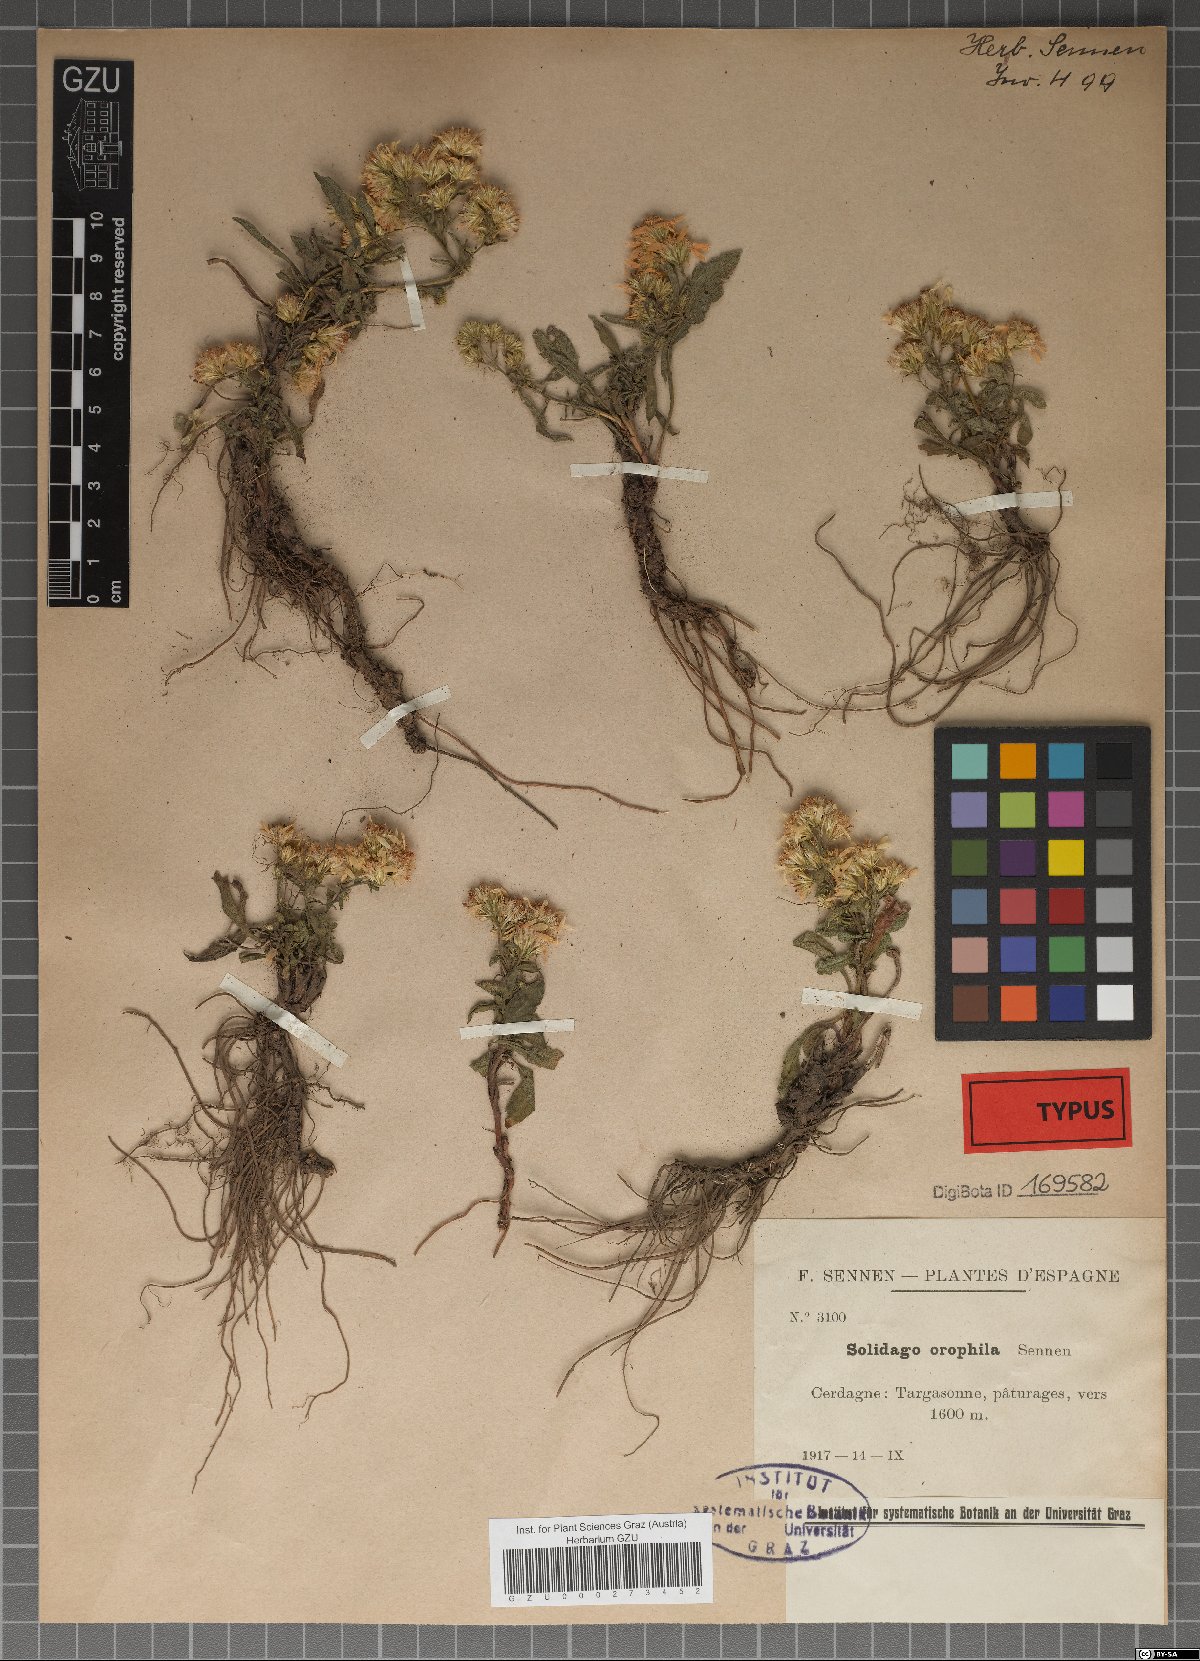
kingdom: Plantae
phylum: Tracheophyta
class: Magnoliopsida
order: Asterales
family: Asteraceae
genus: Solidago
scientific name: Solidago orophila
